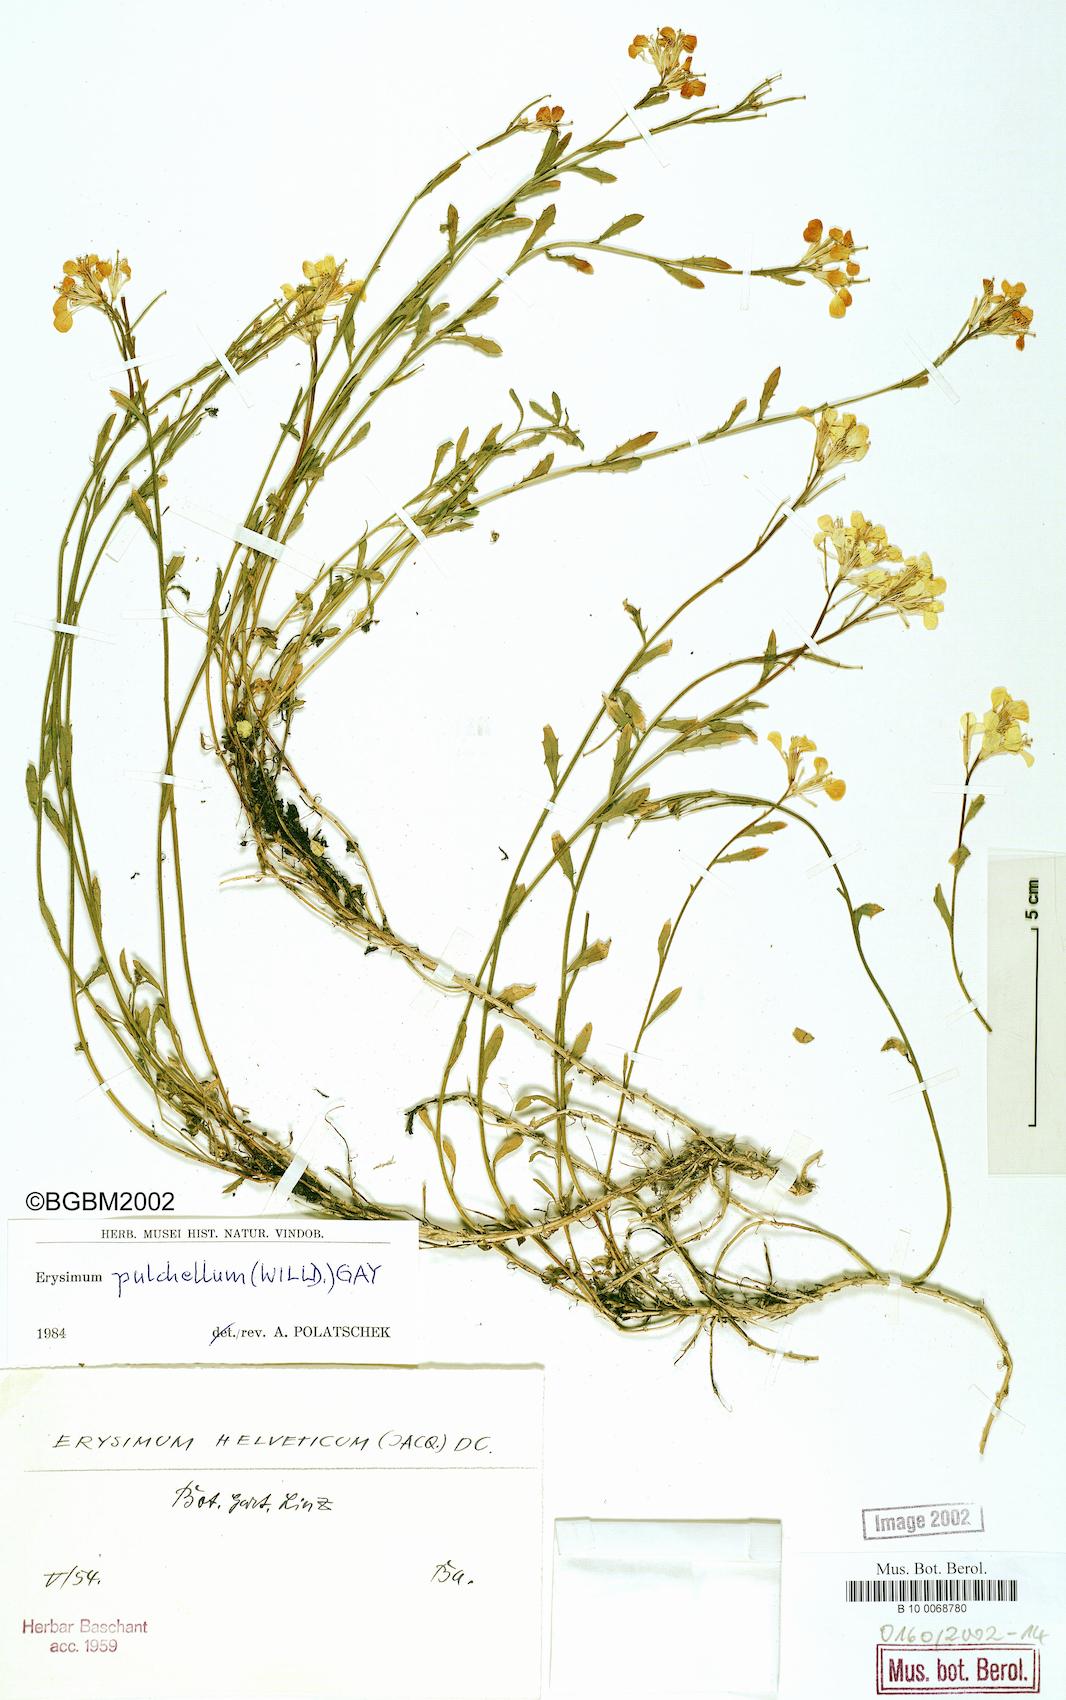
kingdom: Plantae
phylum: Tracheophyta
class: Magnoliopsida
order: Brassicales
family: Brassicaceae
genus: Erysimum
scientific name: Erysimum pulchellum
